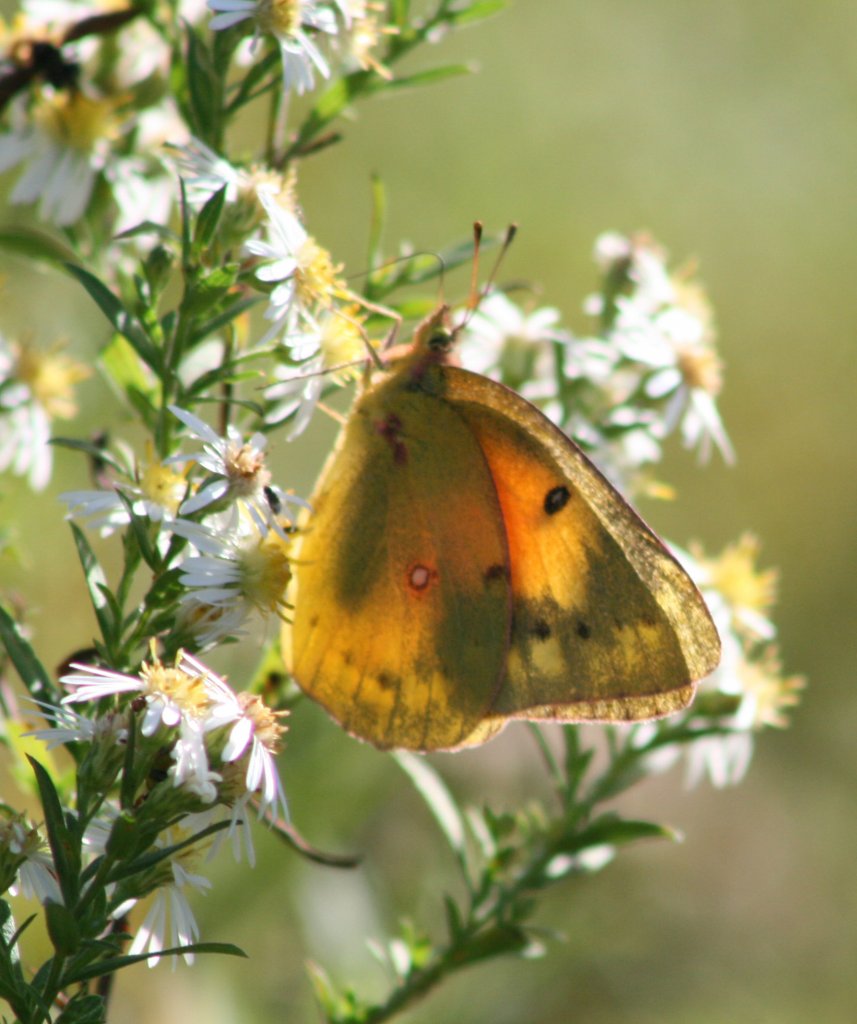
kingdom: Animalia
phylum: Arthropoda
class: Insecta
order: Lepidoptera
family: Pieridae
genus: Colias
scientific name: Colias eurytheme
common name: Orange Sulphur
